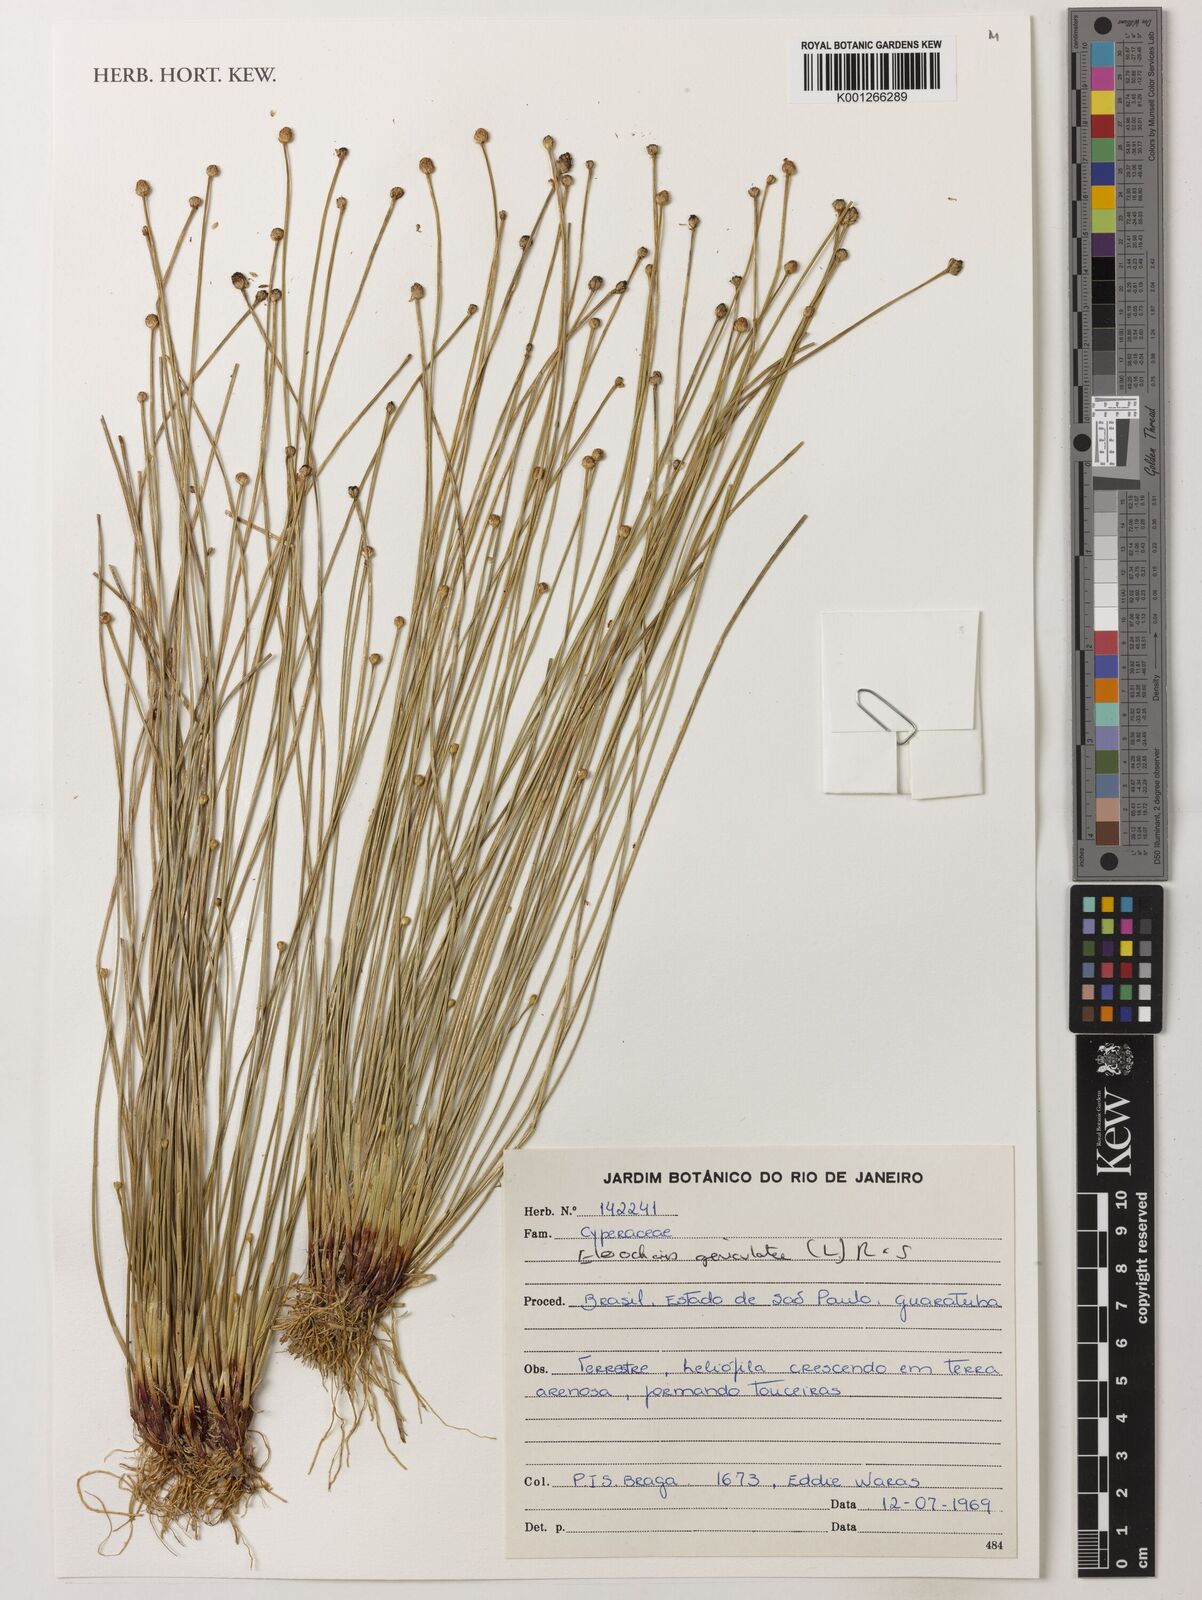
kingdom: Plantae
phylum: Tracheophyta
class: Liliopsida
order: Poales
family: Cyperaceae
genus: Eleocharis
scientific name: Eleocharis geniculata
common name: Canada spikesedge
